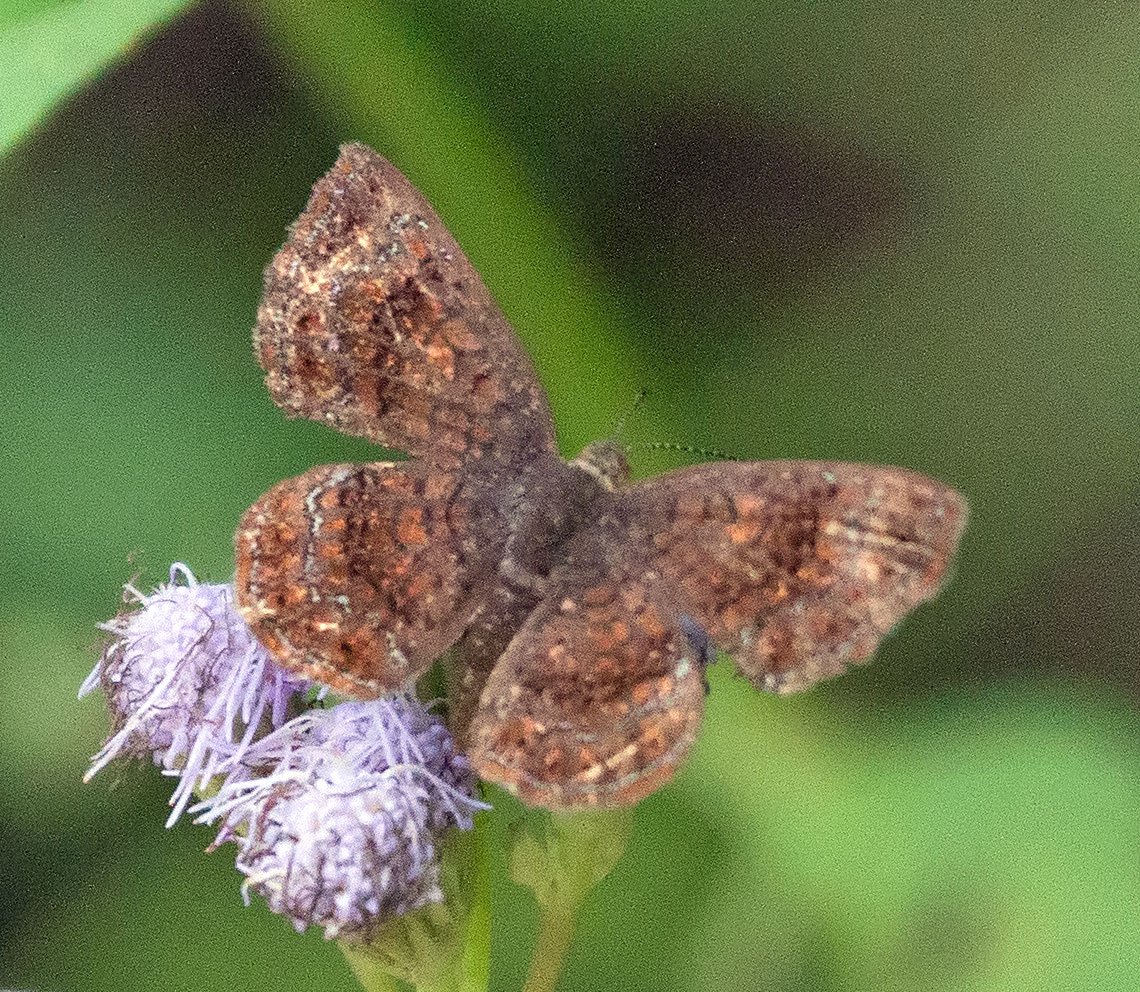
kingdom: Animalia
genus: Calephelis
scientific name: Calephelis perditalis
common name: Rounded Metalmark
